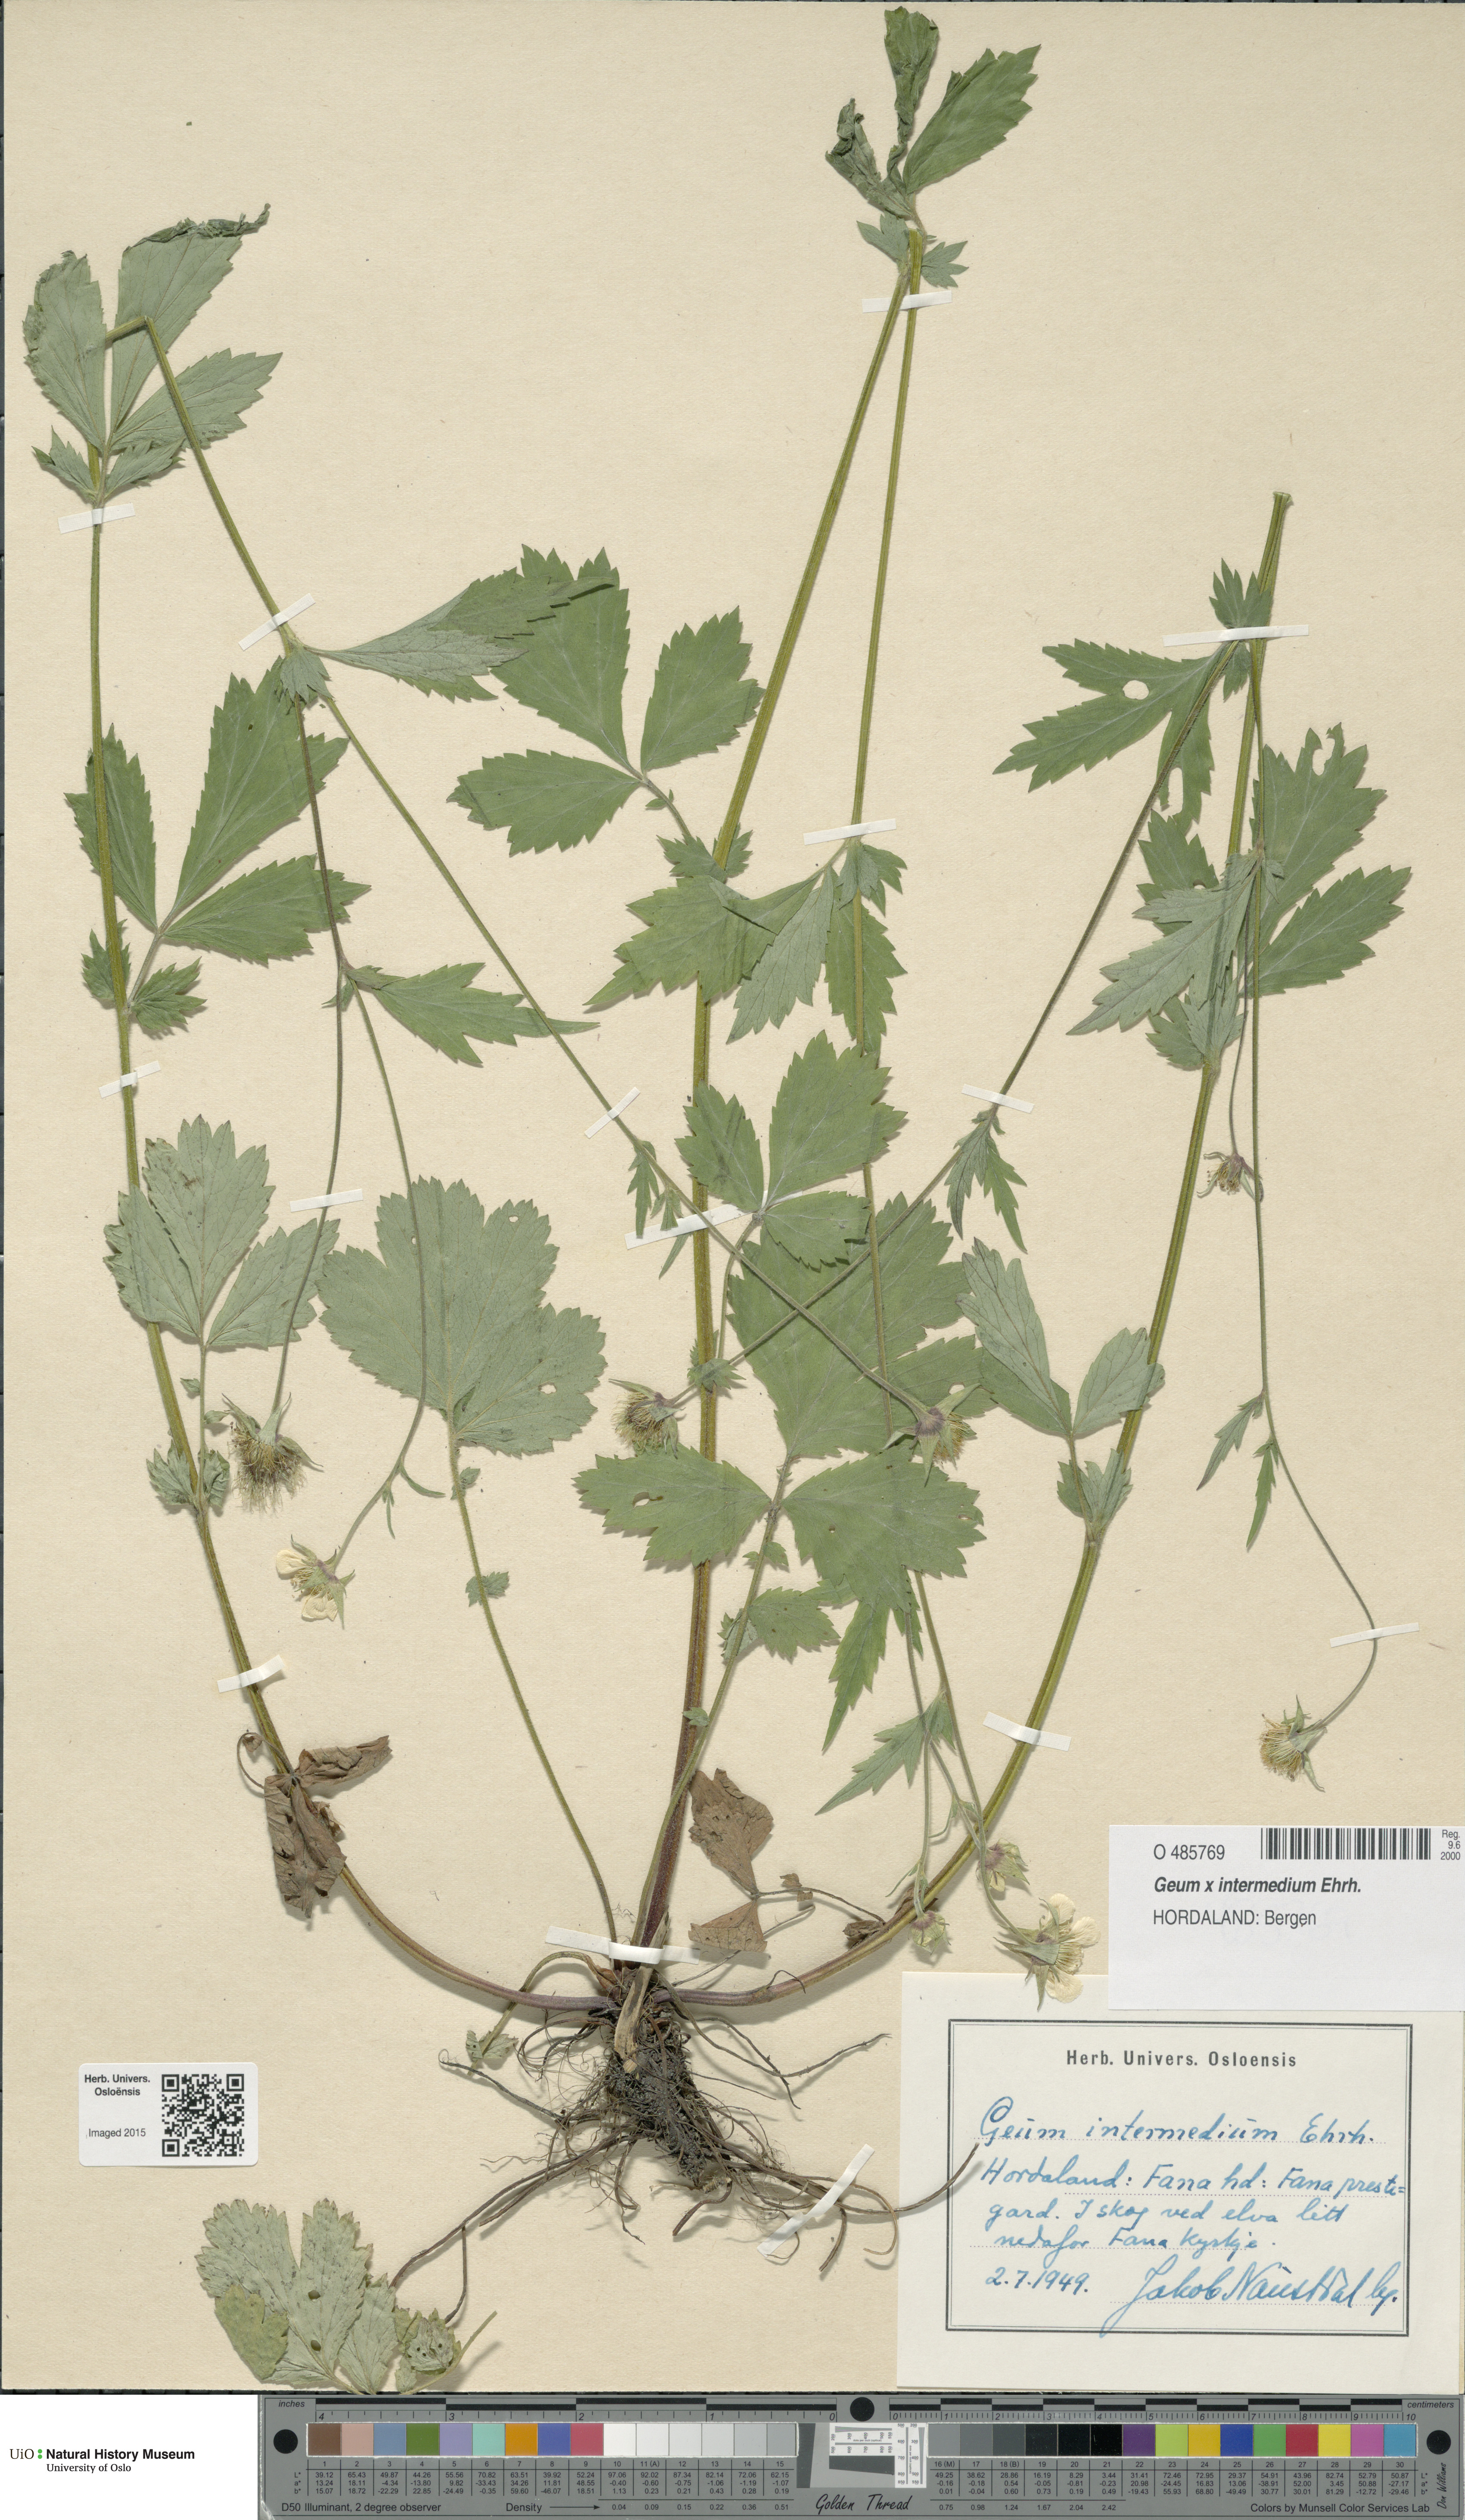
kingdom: Plantae
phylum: Tracheophyta
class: Magnoliopsida
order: Rosales
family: Rosaceae
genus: Geum
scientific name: Geum intermedium
